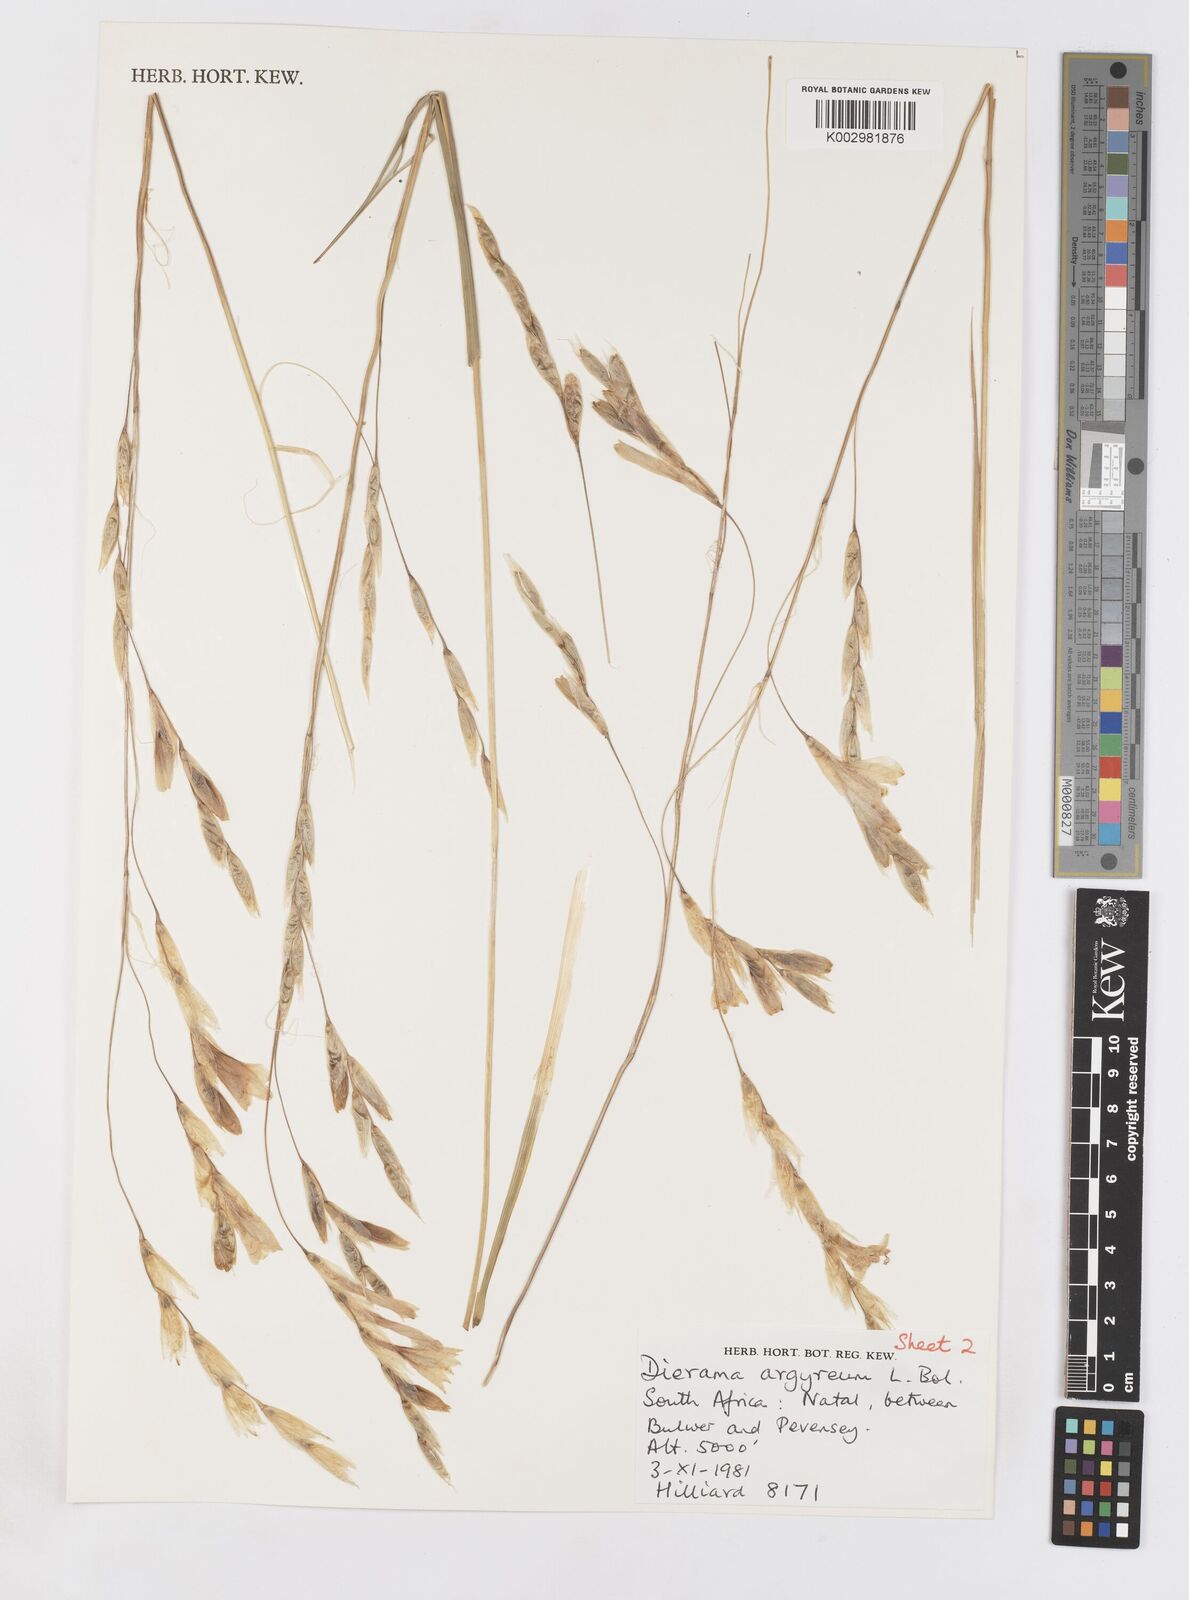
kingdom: Plantae
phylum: Tracheophyta
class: Liliopsida
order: Asparagales
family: Iridaceae
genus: Dierama
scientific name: Dierama argyreum
